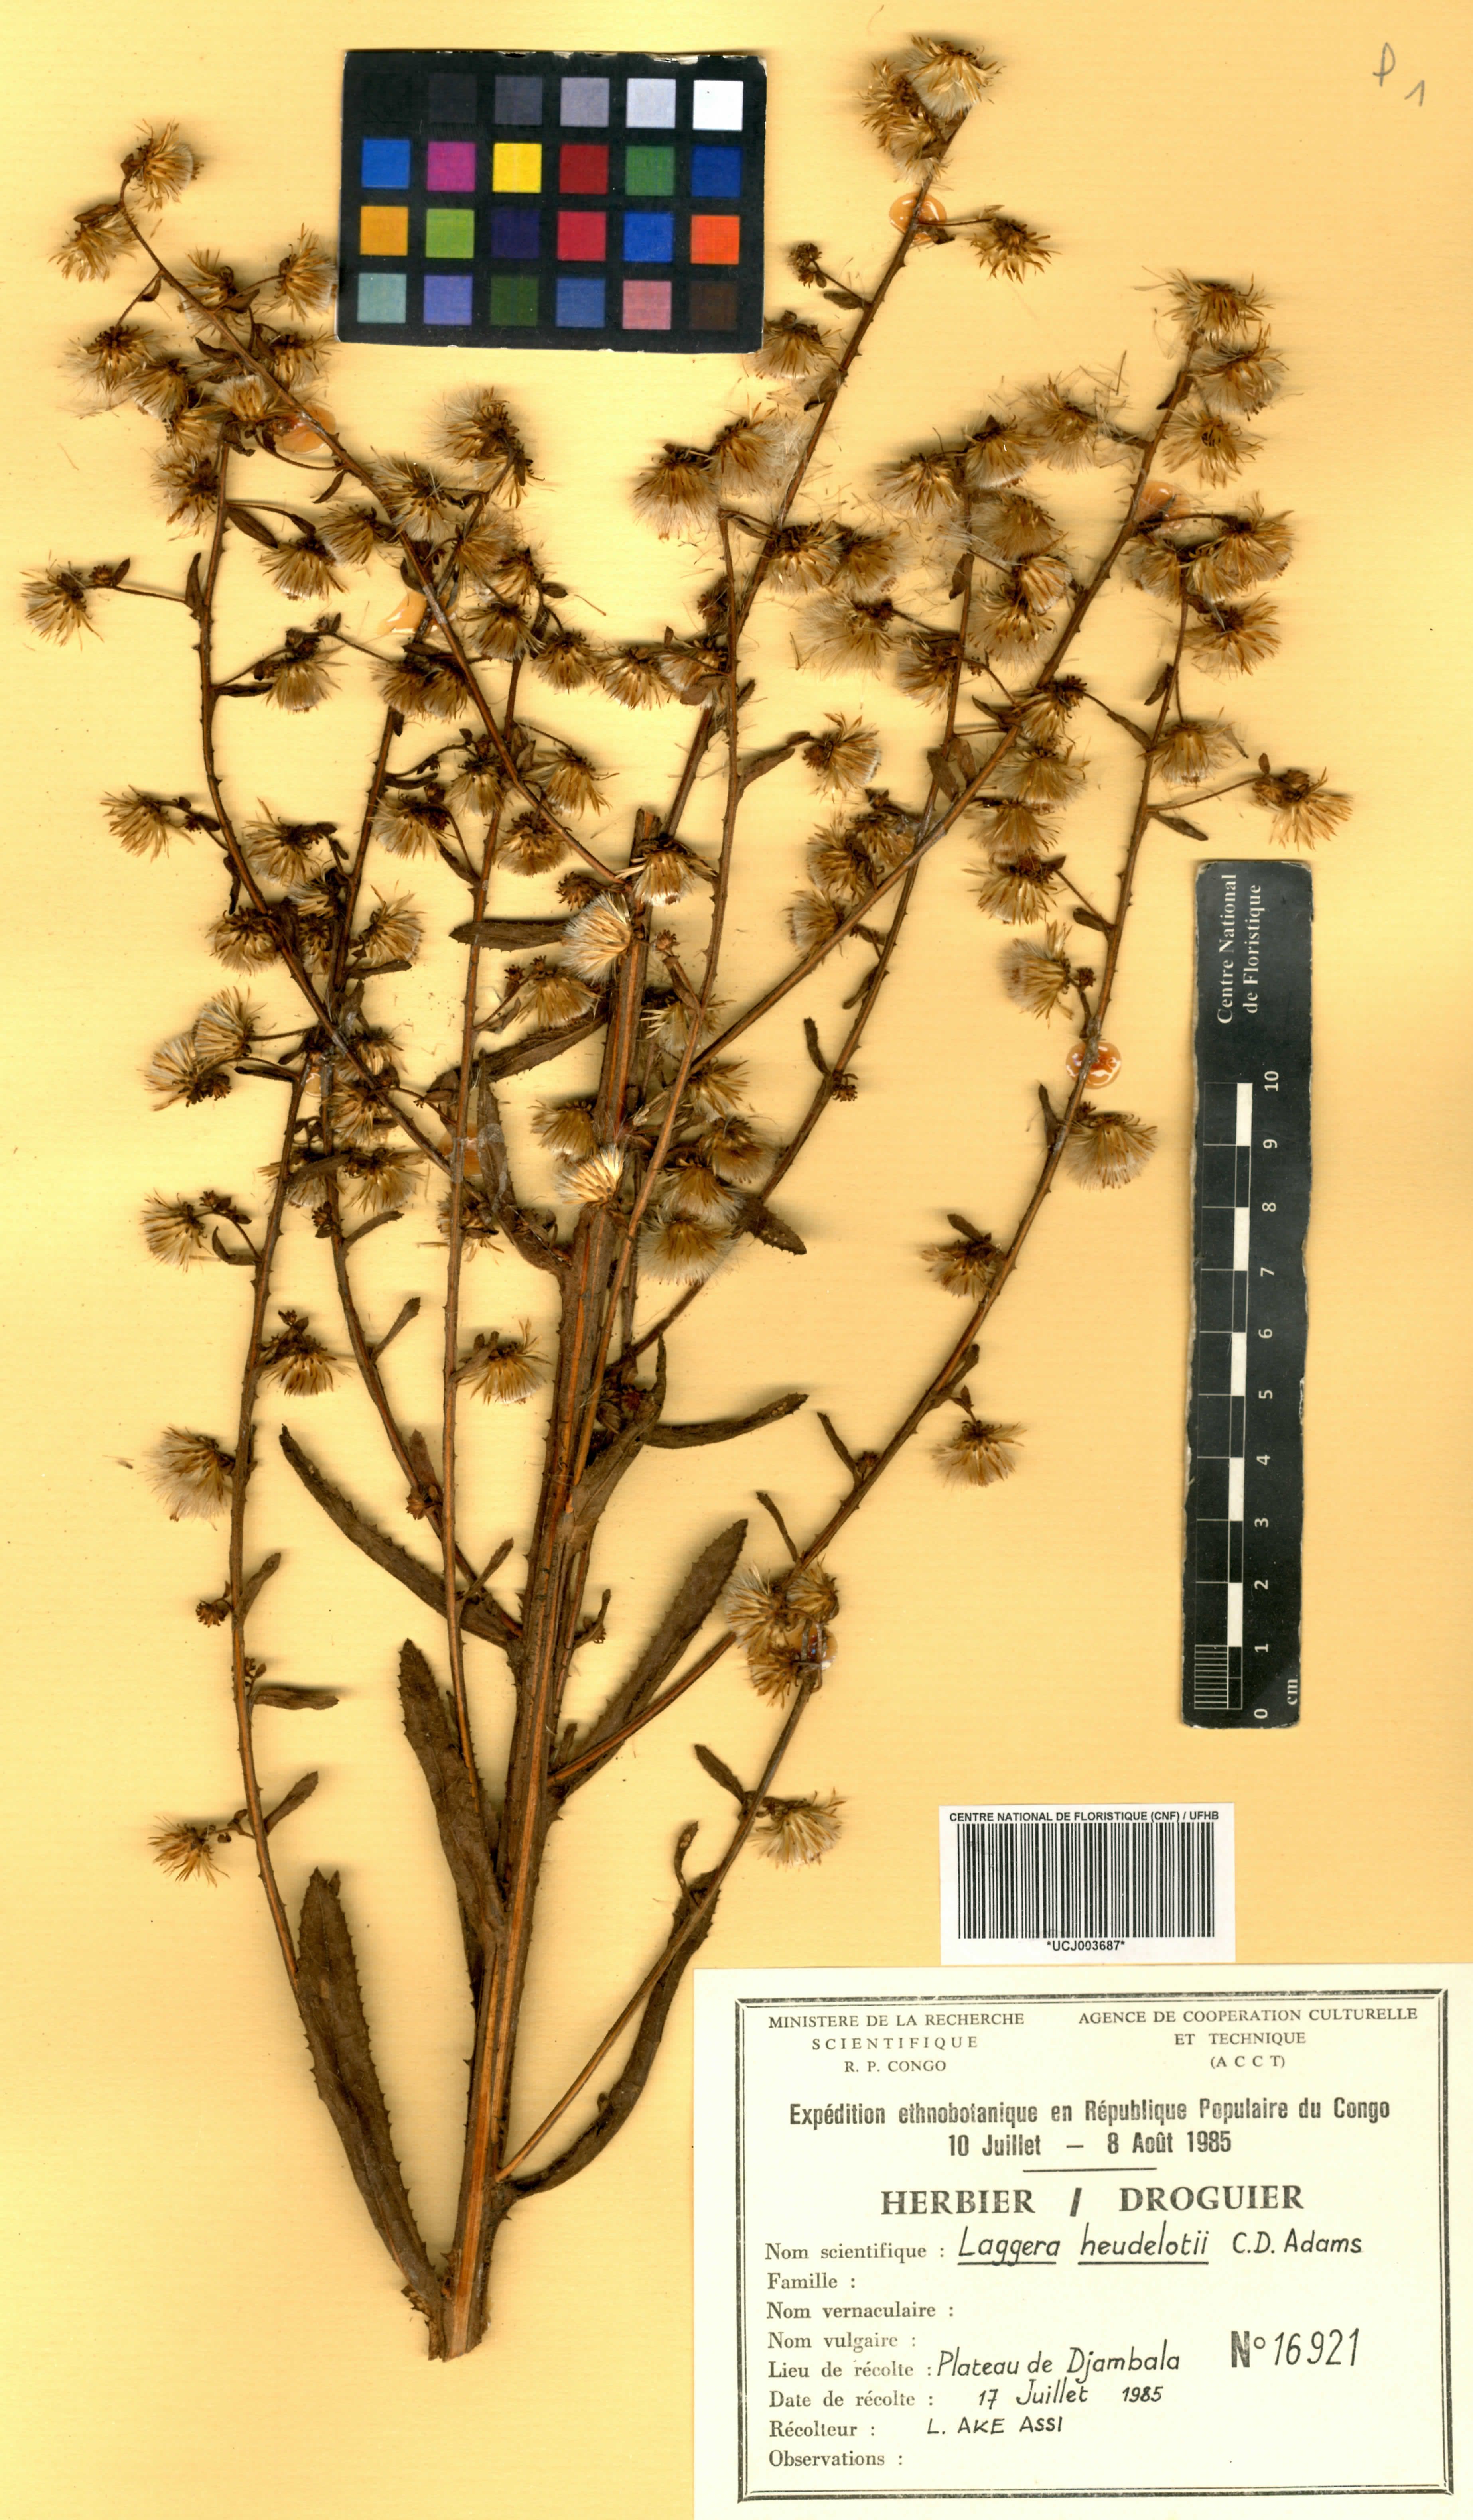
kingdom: Plantae
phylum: Tracheophyta
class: Magnoliopsida
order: Asterales
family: Asteraceae
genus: Laggera
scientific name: Laggera heudelotii
